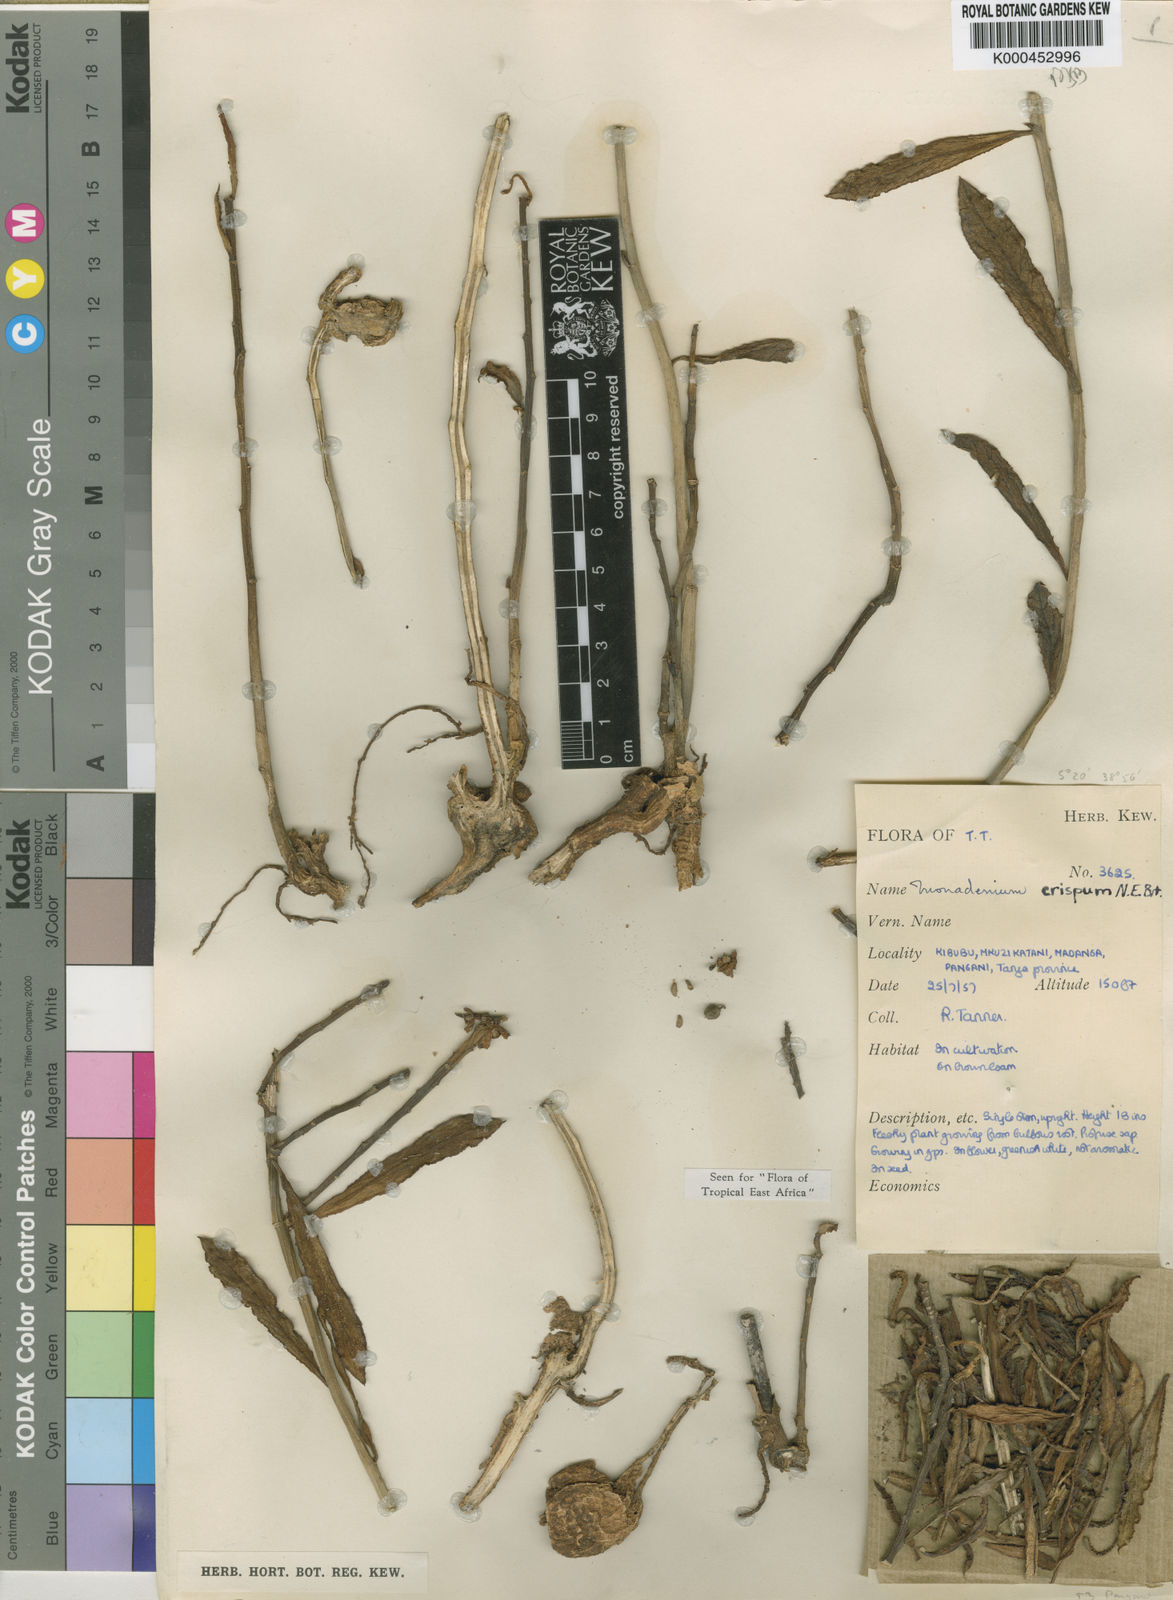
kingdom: Plantae
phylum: Tracheophyta
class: Magnoliopsida
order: Malpighiales
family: Euphorbiaceae
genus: Euphorbia
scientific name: Euphorbia neocrispa
